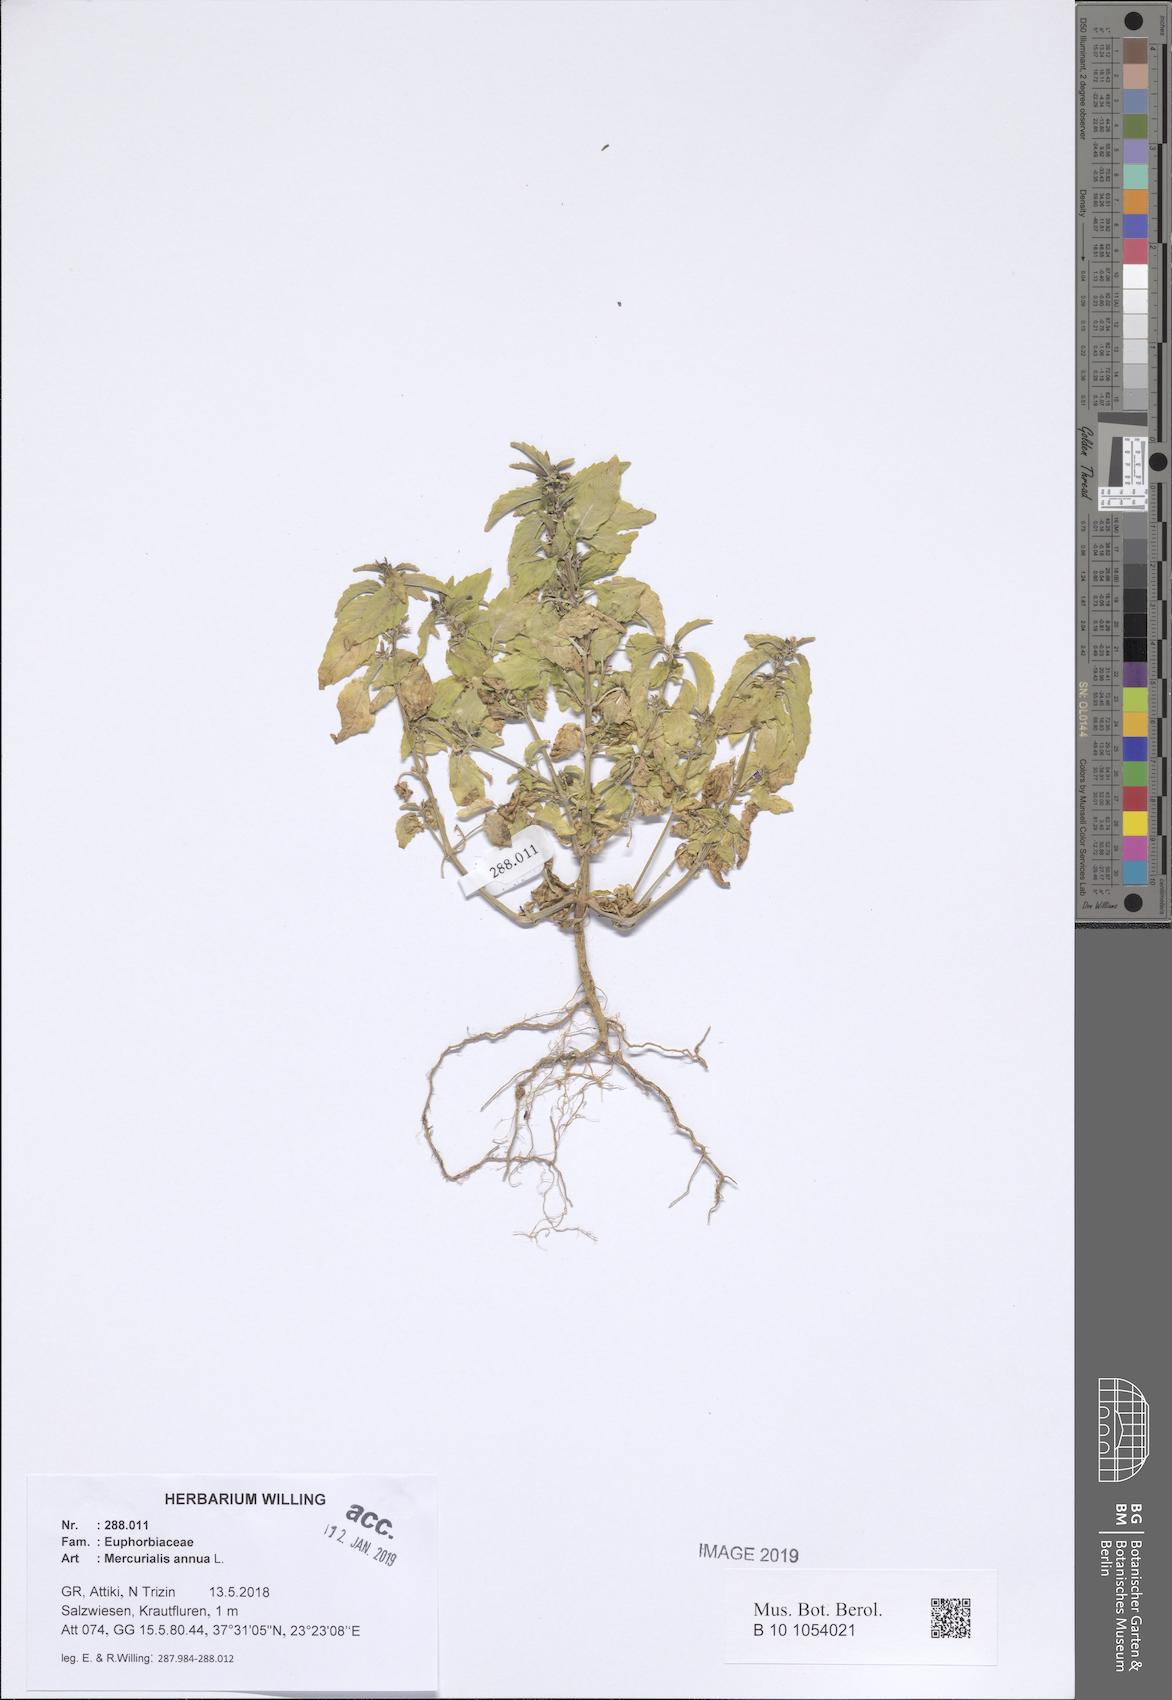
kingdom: Plantae
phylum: Tracheophyta
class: Magnoliopsida
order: Malpighiales
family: Euphorbiaceae
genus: Mercurialis
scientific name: Mercurialis annua
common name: Annual mercury
